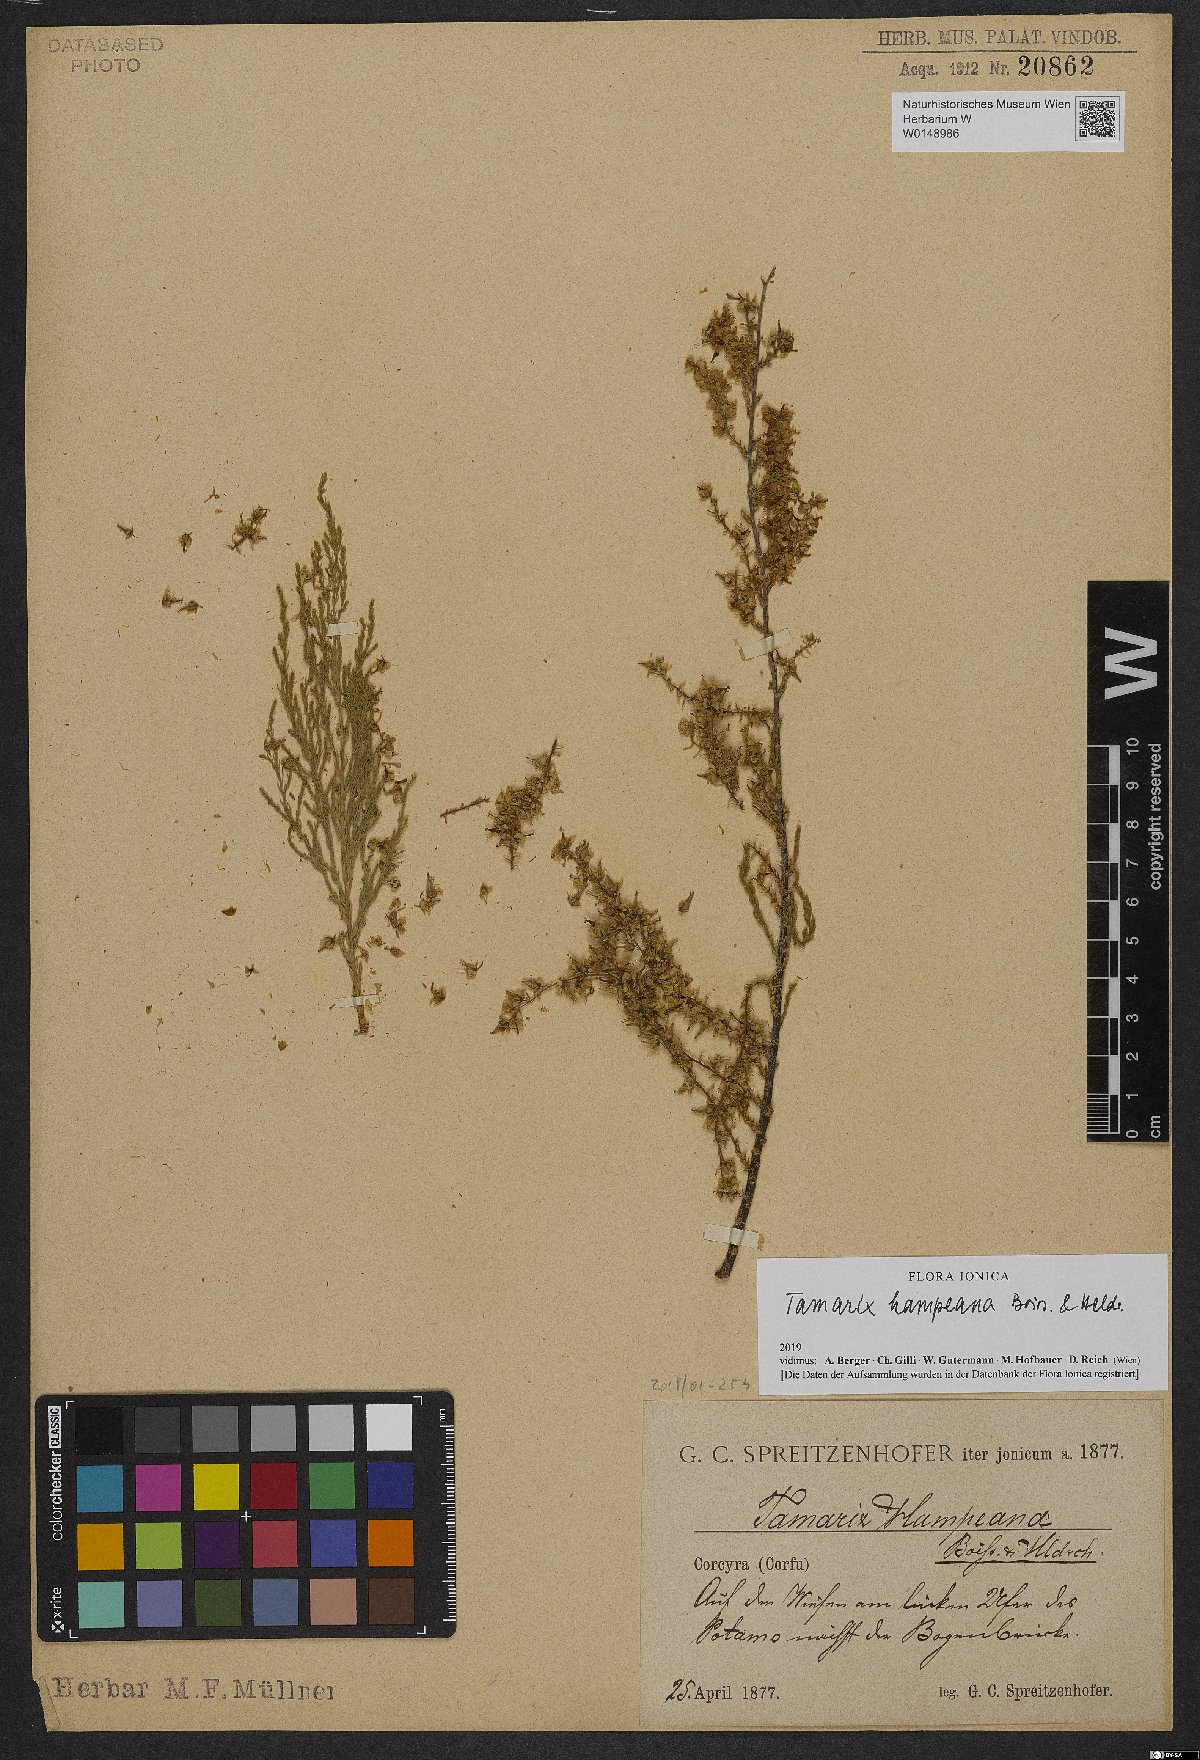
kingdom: Plantae
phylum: Tracheophyta
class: Magnoliopsida
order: Caryophyllales
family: Tamaricaceae
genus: Tamarix
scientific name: Tamarix hampeana
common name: Hampe’s tamarisk
